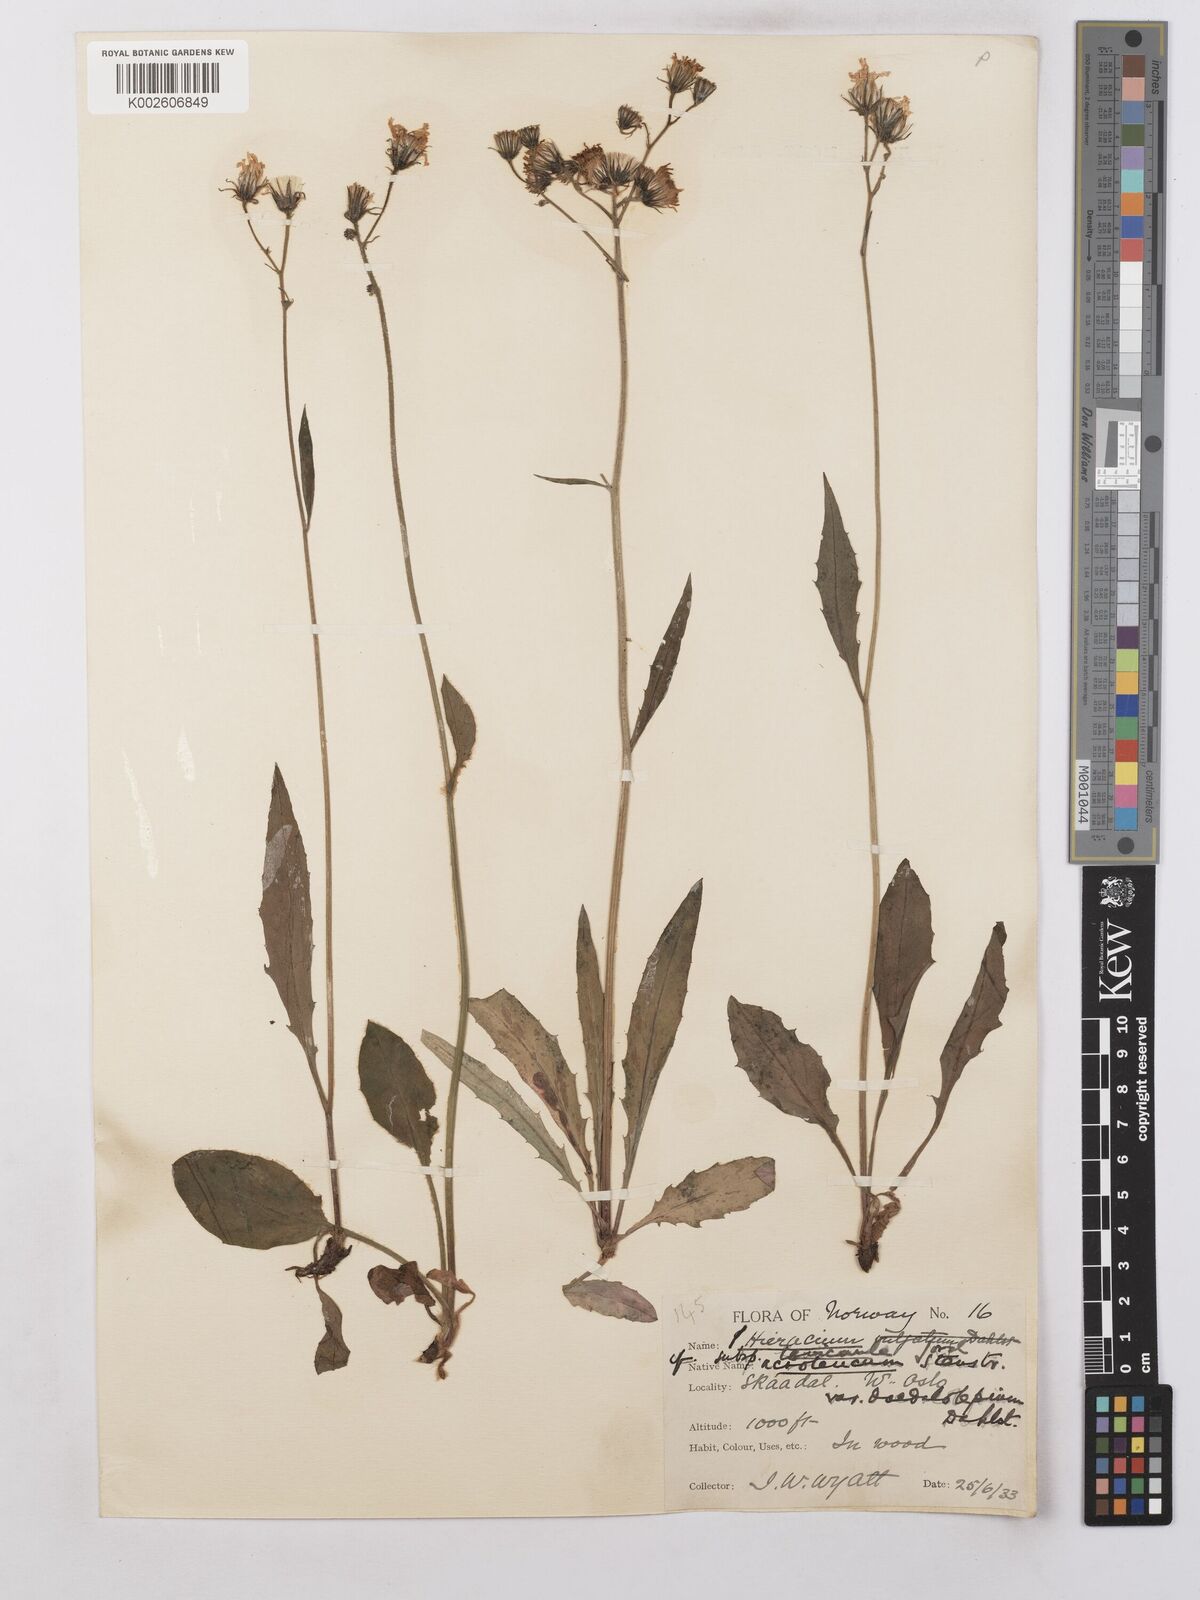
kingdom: Plantae
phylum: Tracheophyta
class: Magnoliopsida
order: Asterales
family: Asteraceae
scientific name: Asteraceae
